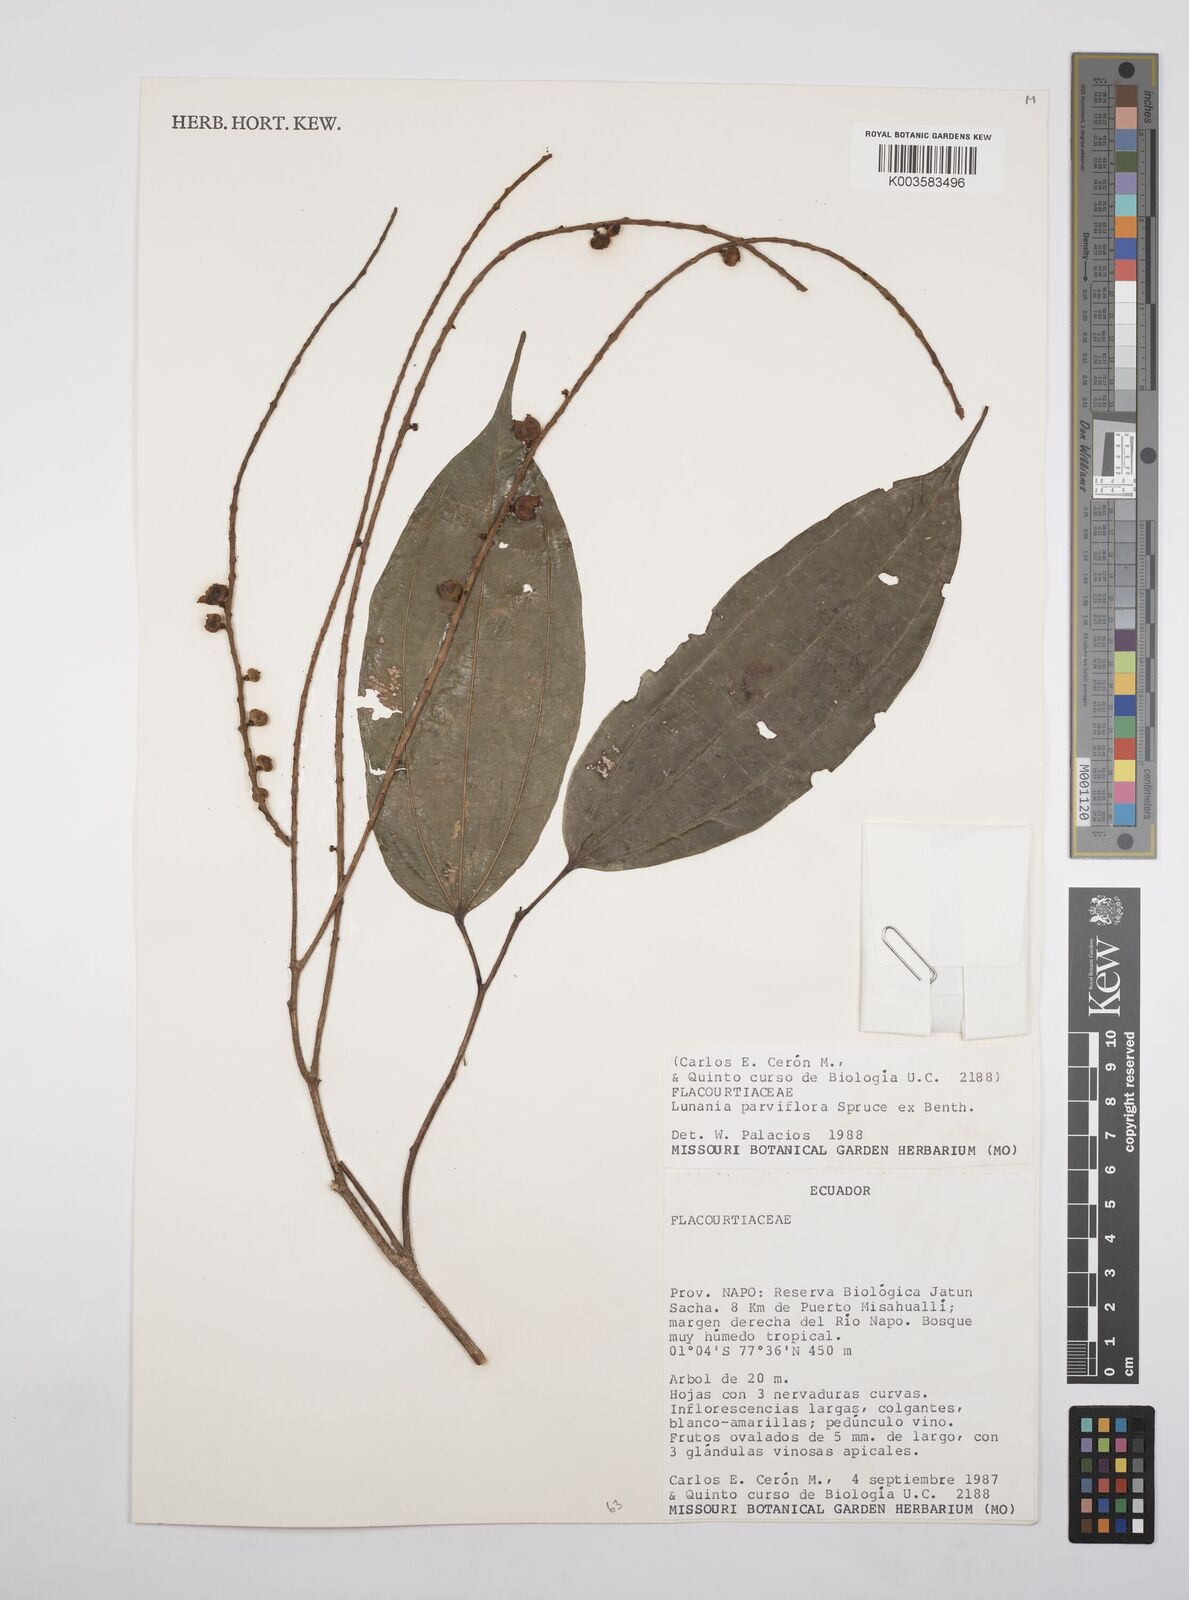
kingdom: Plantae
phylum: Tracheophyta
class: Magnoliopsida
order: Malpighiales
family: Salicaceae
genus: Lunania
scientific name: Lunania parviflora
